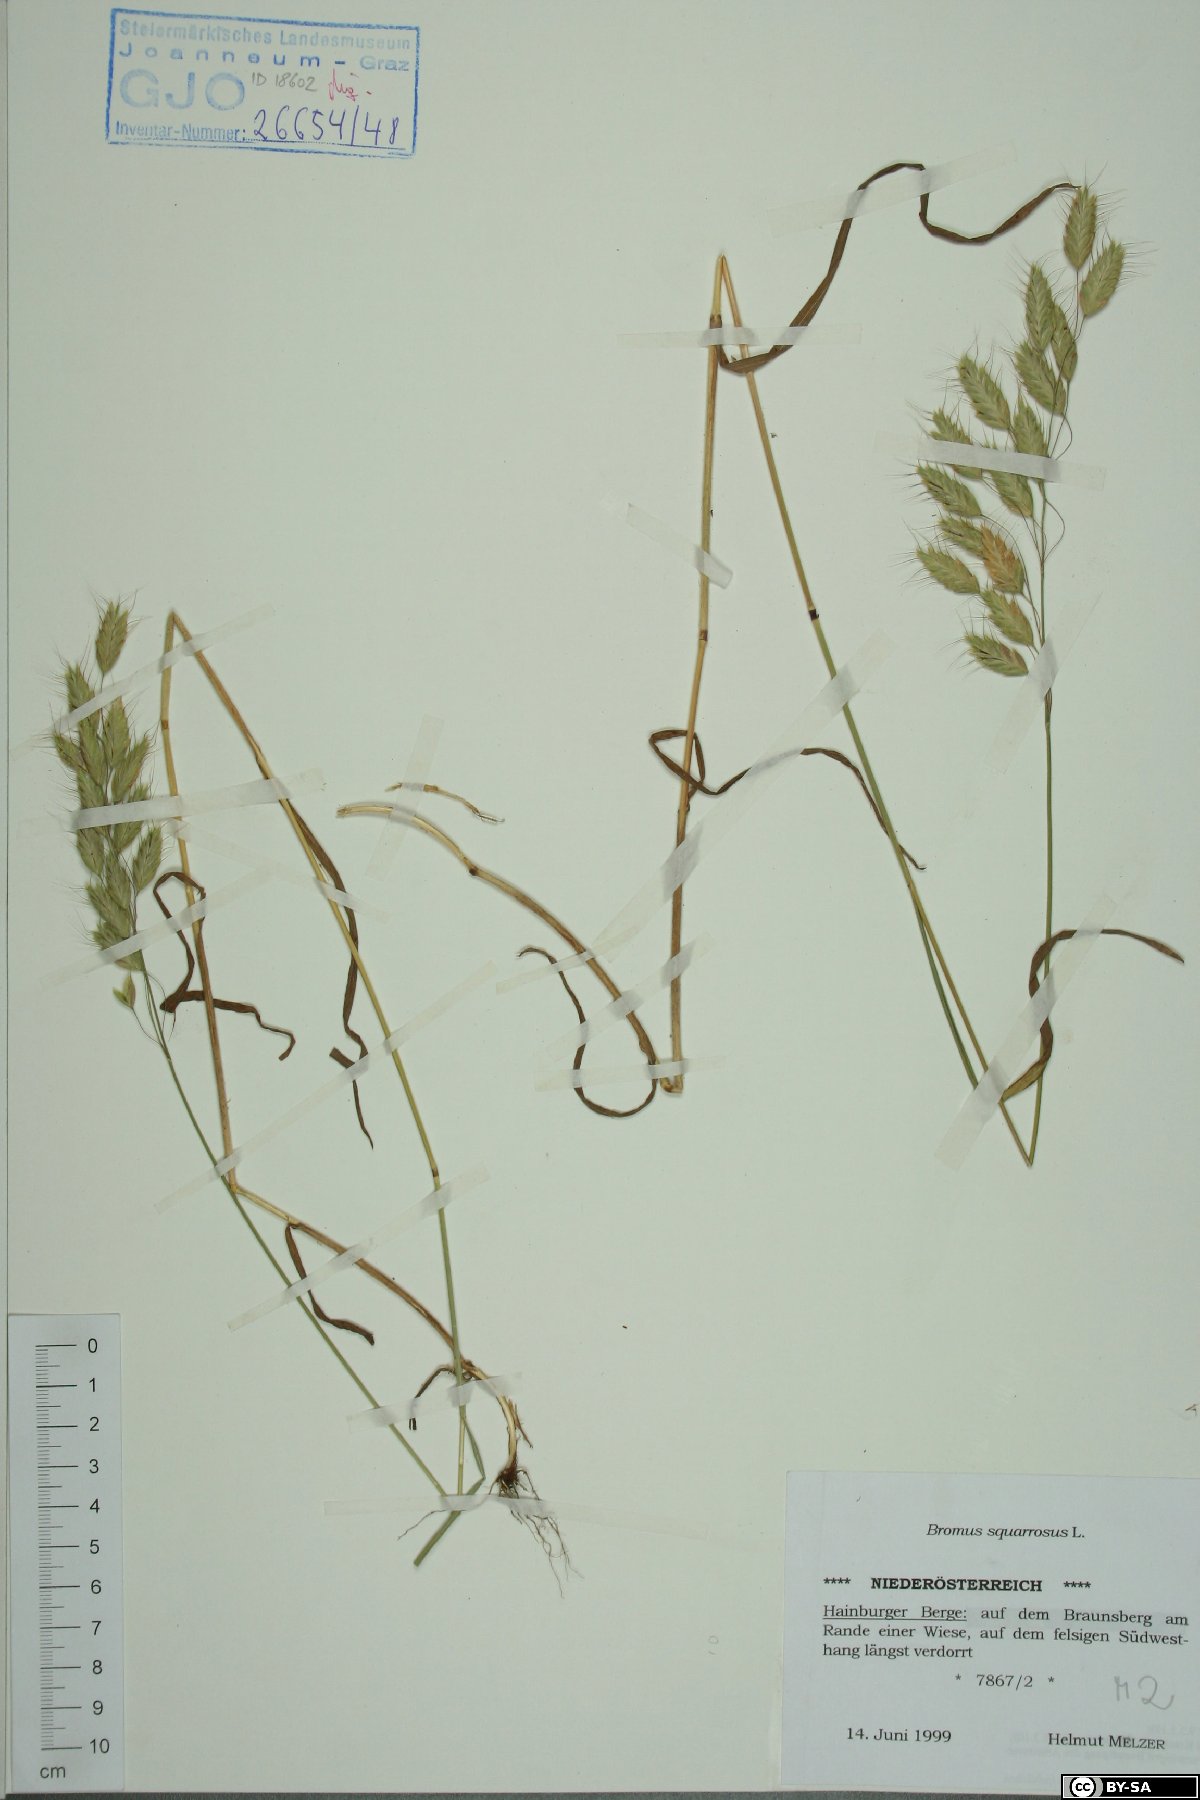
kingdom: Plantae
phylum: Tracheophyta
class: Liliopsida
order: Poales
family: Poaceae
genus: Bromus
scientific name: Bromus squarrosus
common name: Corn brome
